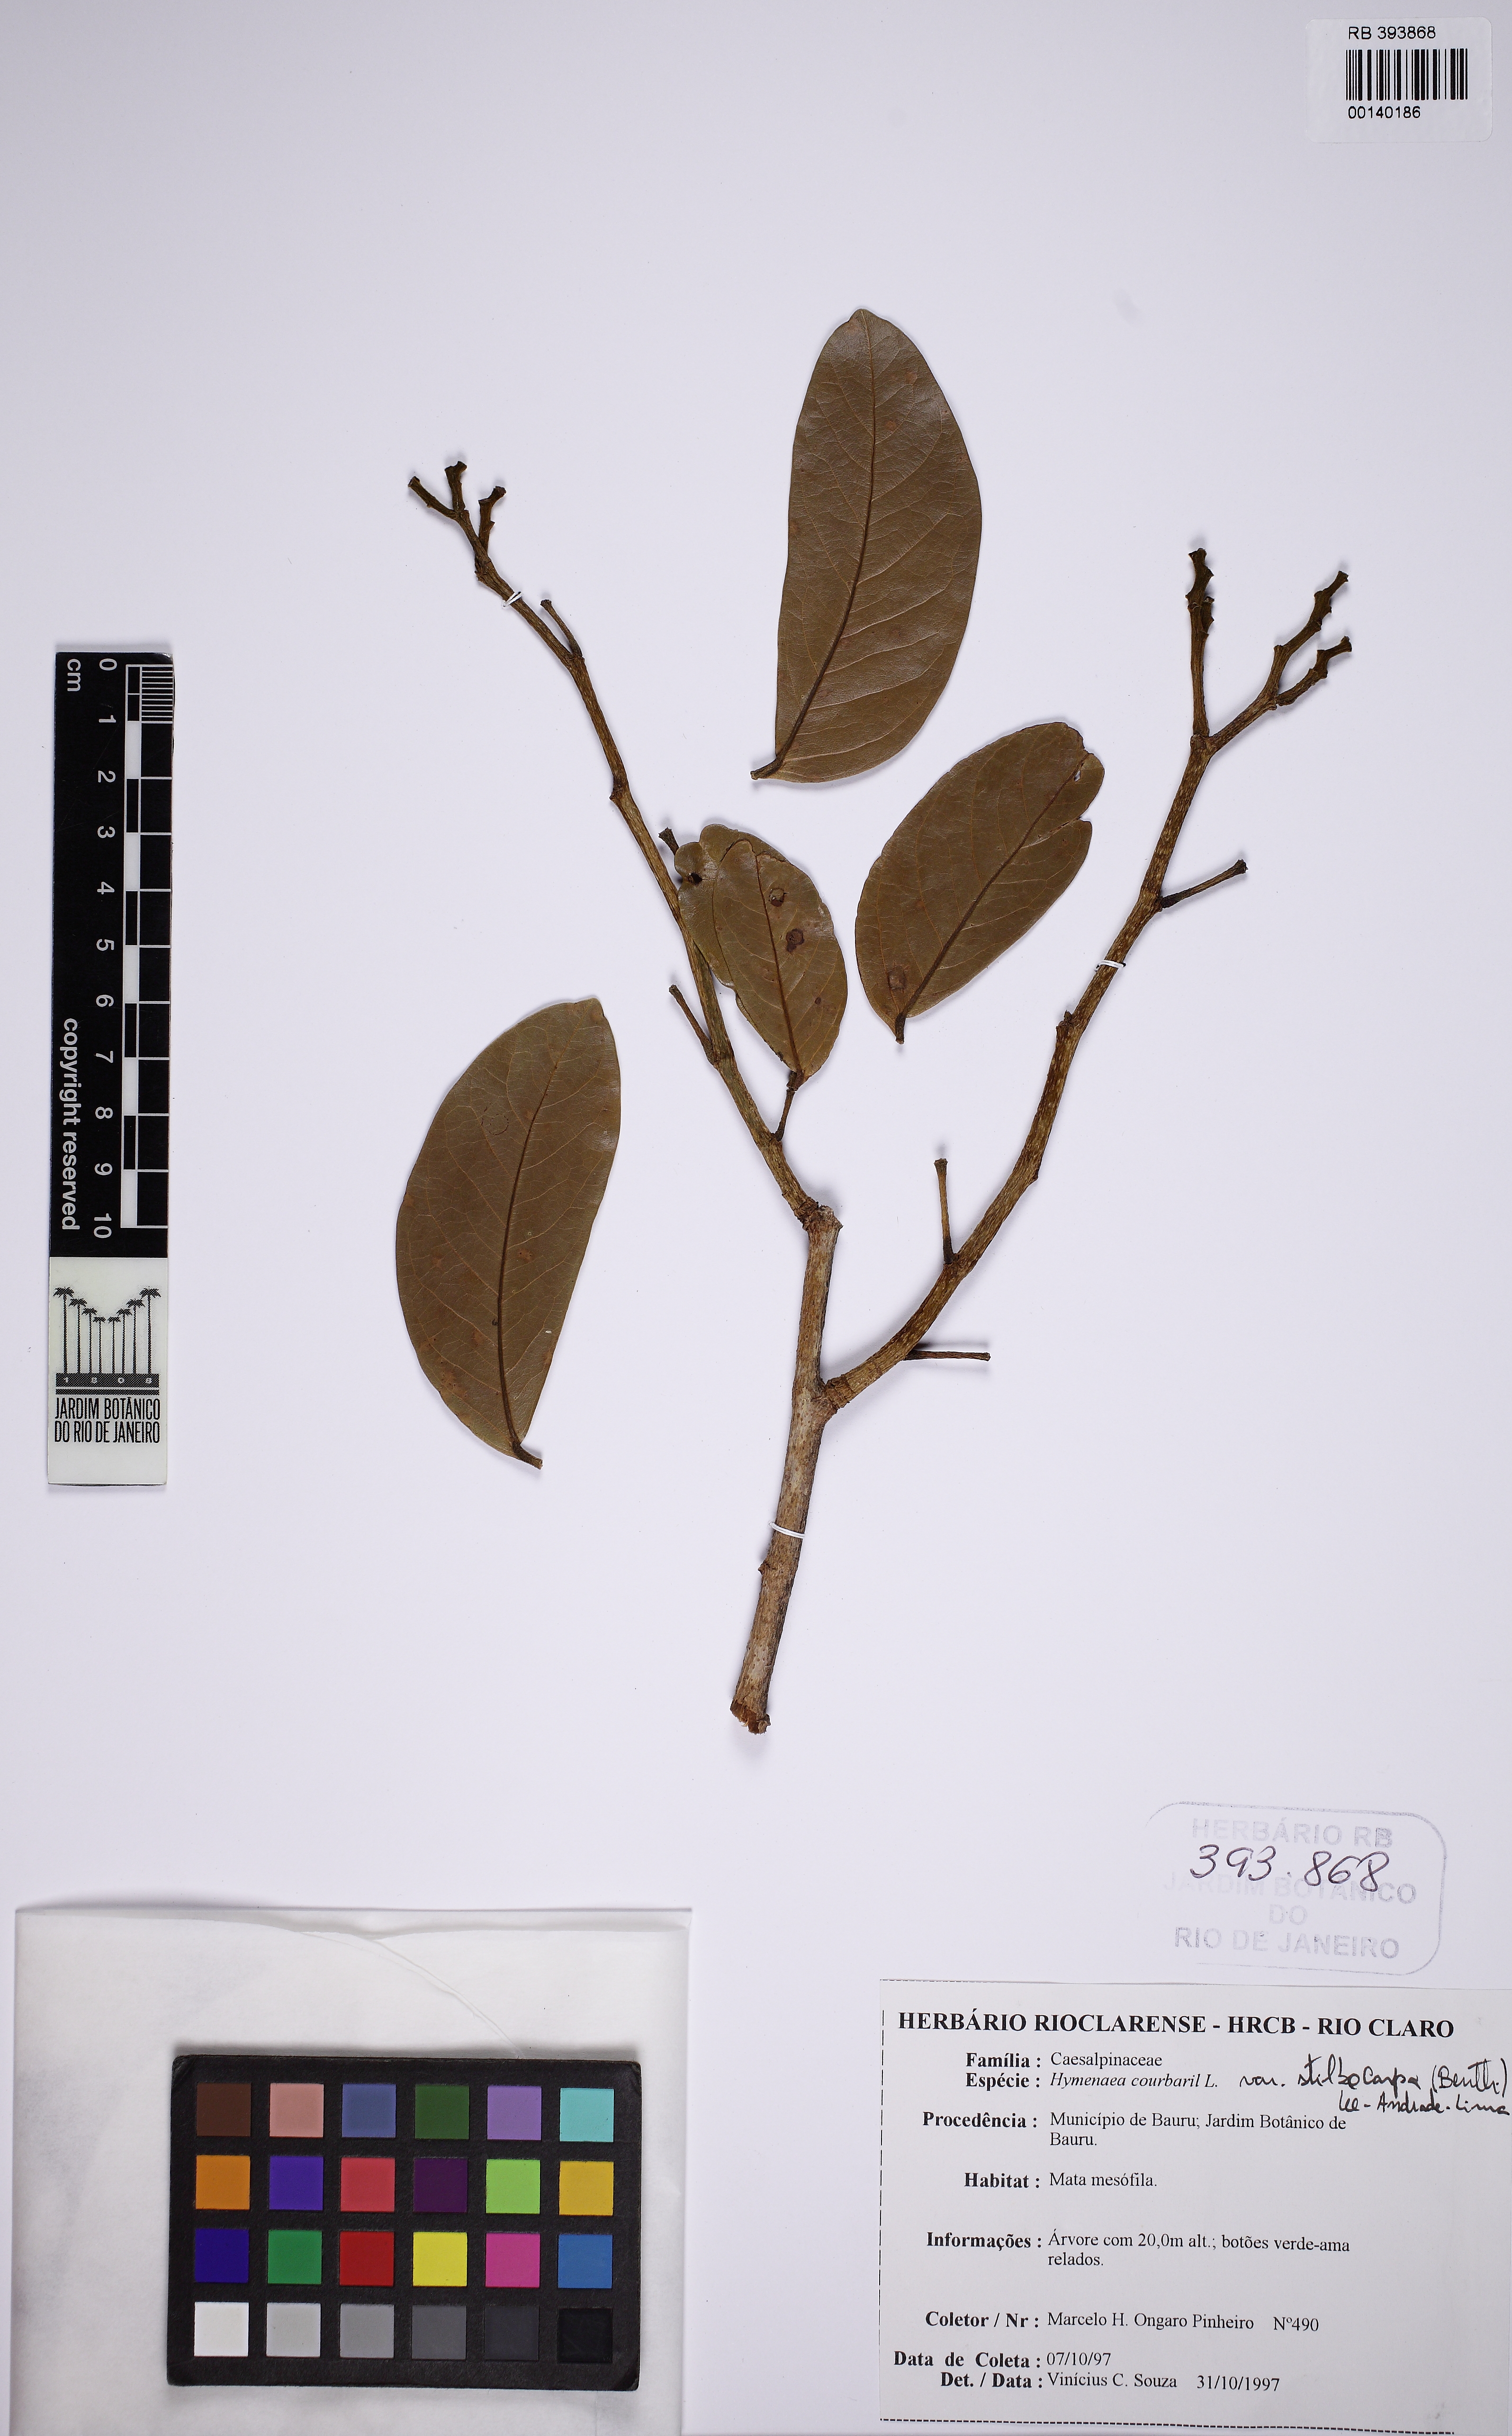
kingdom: Plantae
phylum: Tracheophyta
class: Magnoliopsida
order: Fabales
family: Fabaceae
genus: Hymenaea
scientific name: Hymenaea courbaril
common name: Brazilian copal
